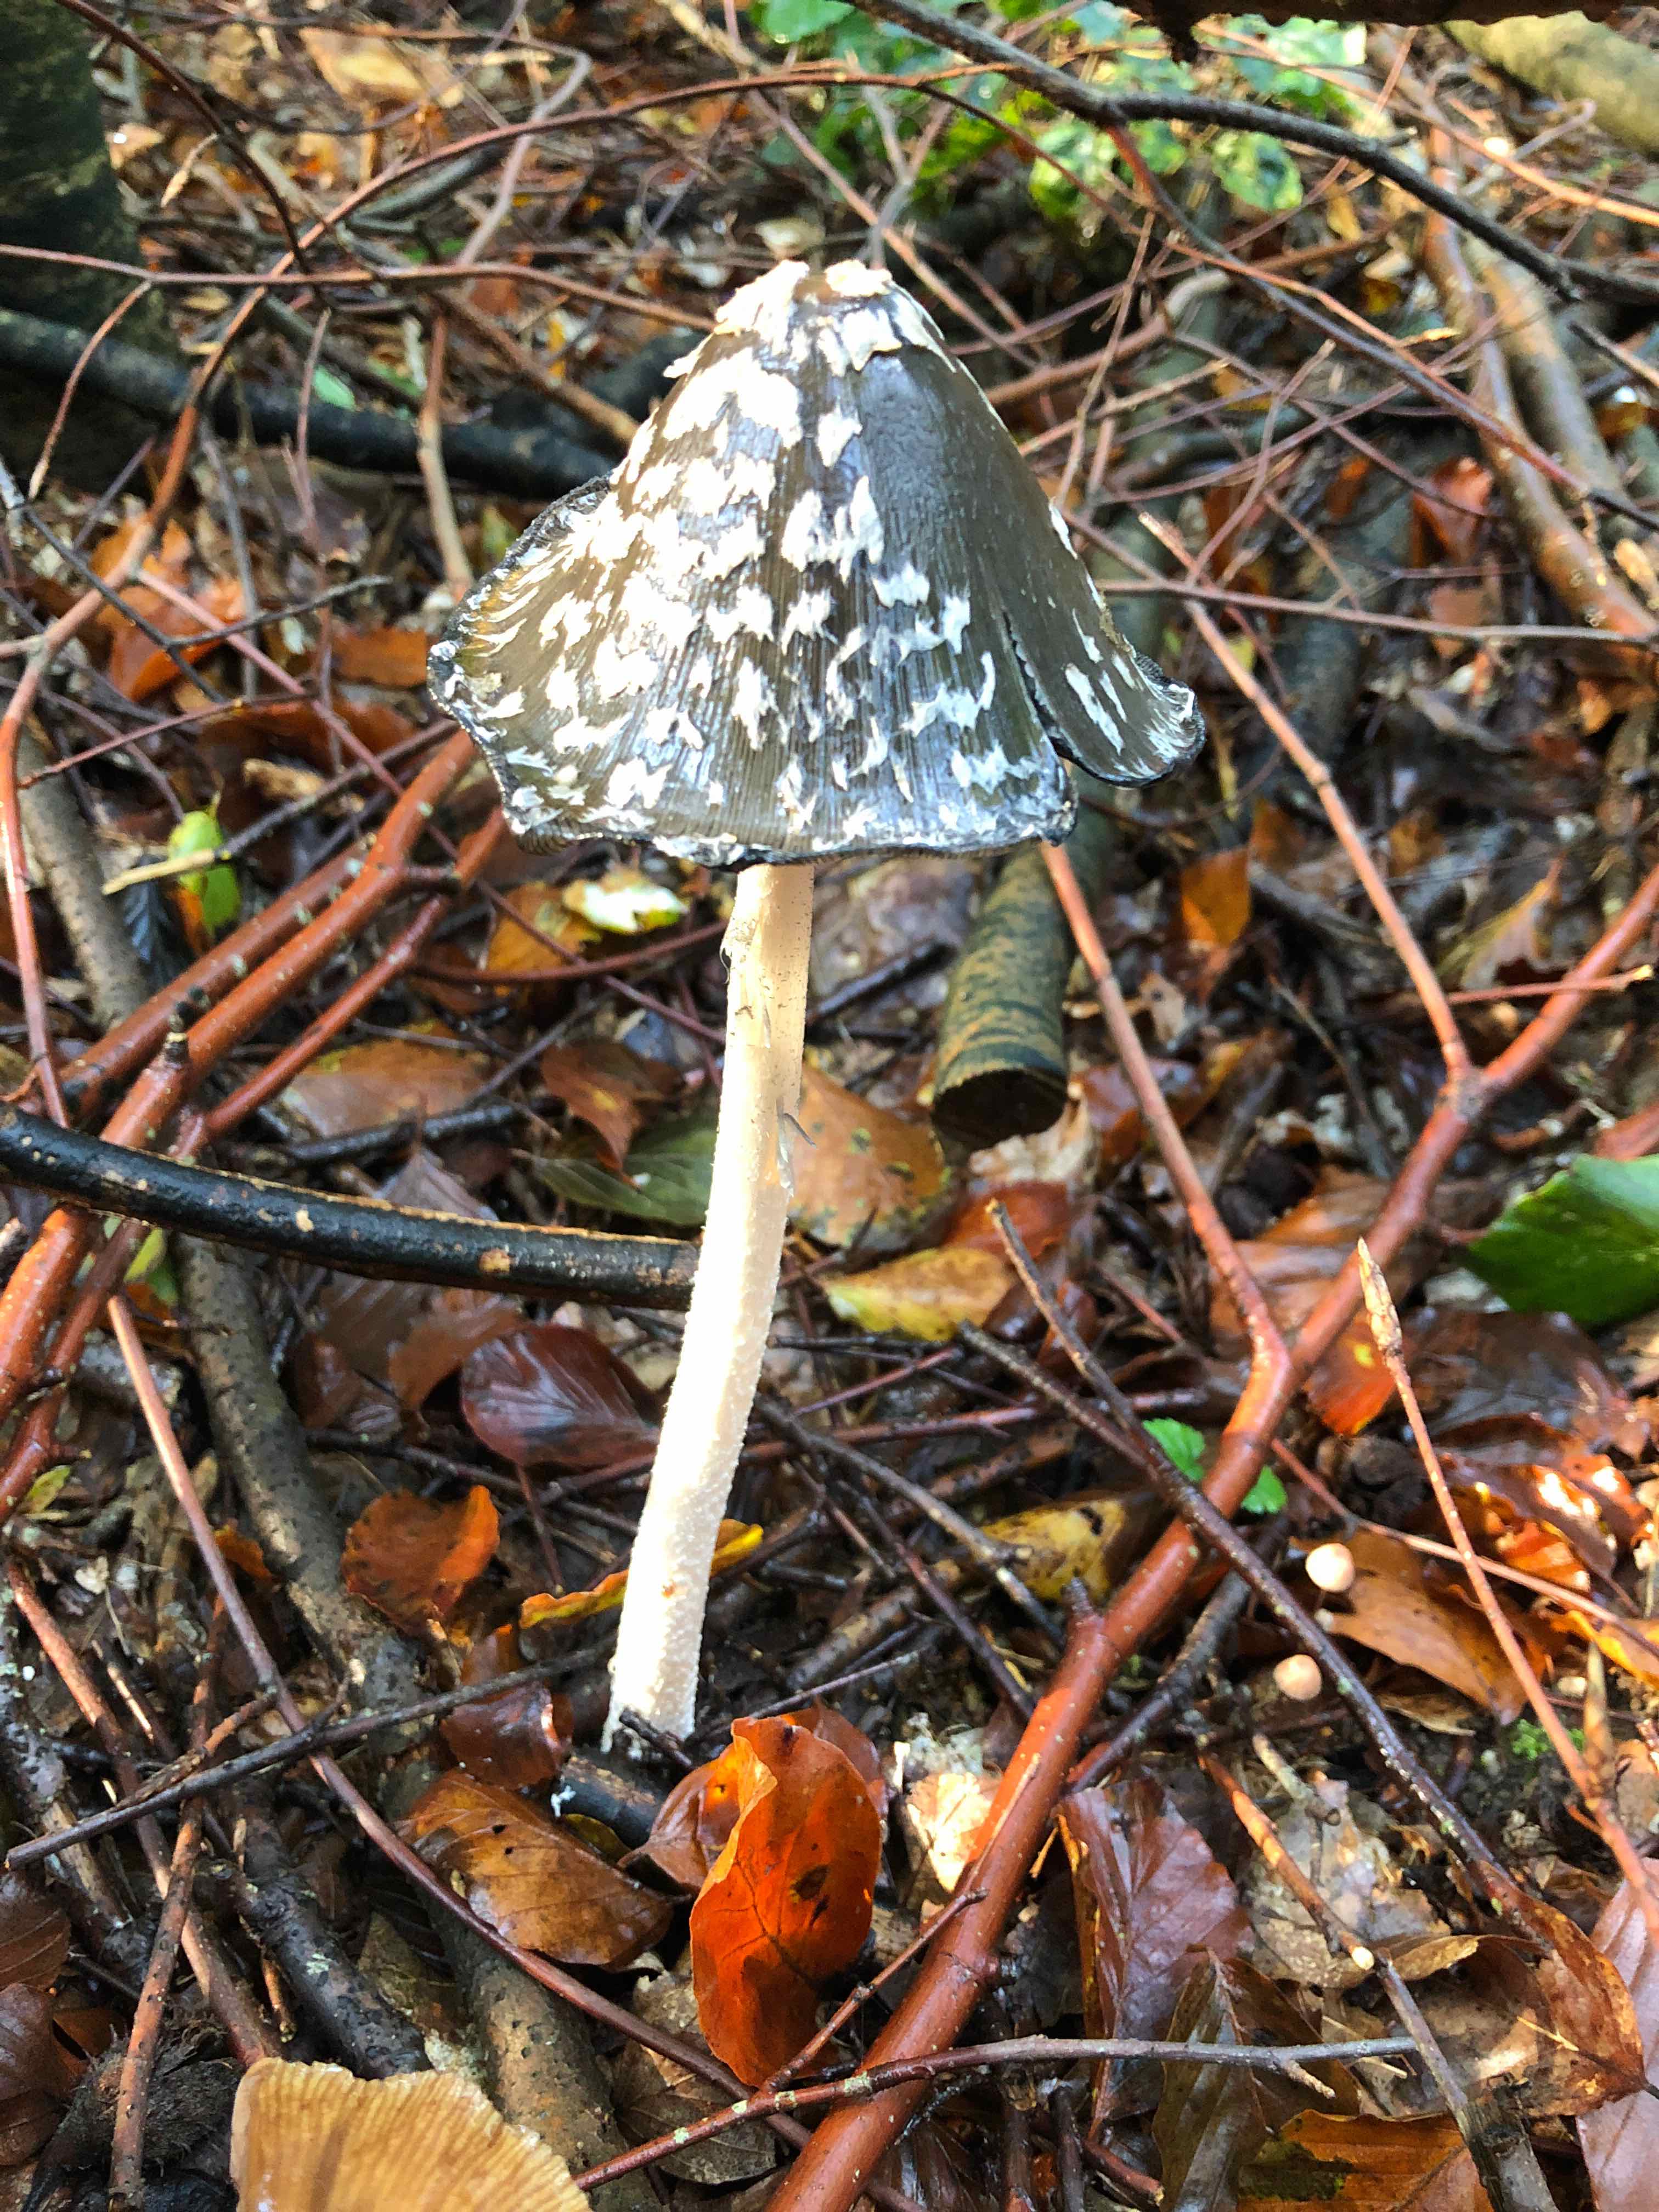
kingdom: Fungi
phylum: Basidiomycota
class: Agaricomycetes
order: Agaricales
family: Psathyrellaceae
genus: Coprinopsis
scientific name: Coprinopsis picacea
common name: skade-blækhat
